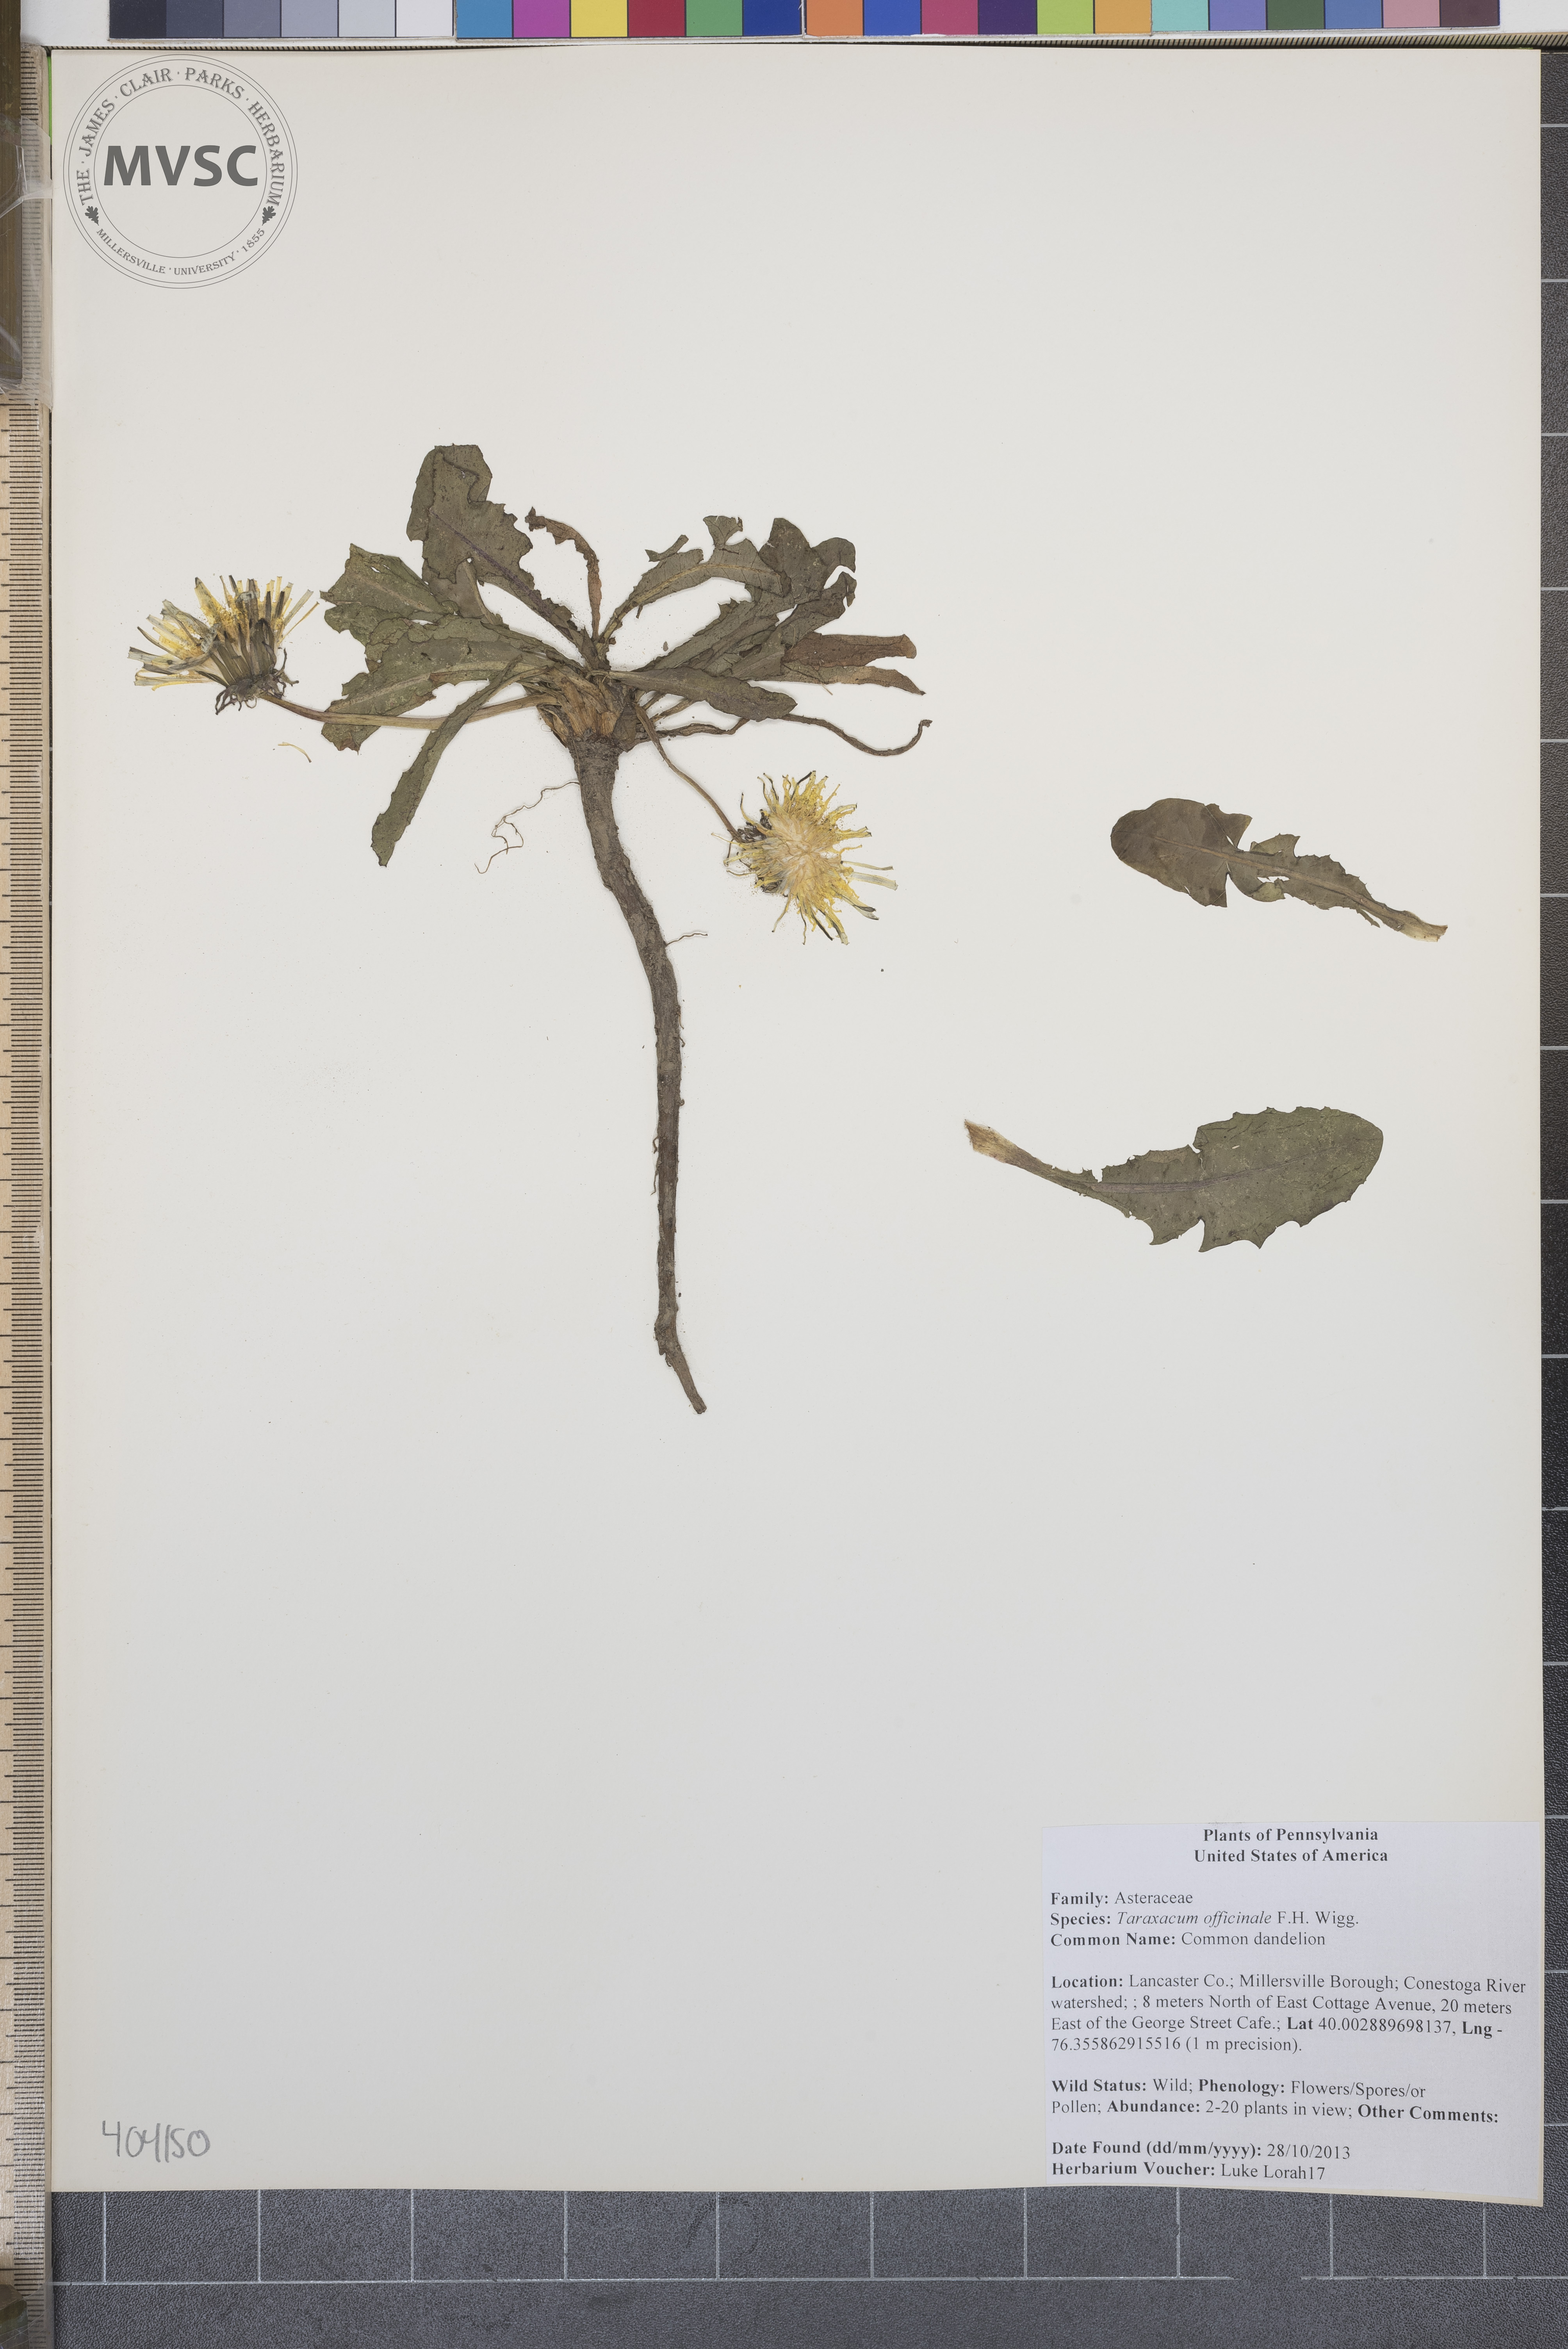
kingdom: Plantae
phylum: Tracheophyta
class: Magnoliopsida
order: Asterales
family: Asteraceae
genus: Taraxacum
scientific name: Taraxacum officinale
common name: Common dandelion
